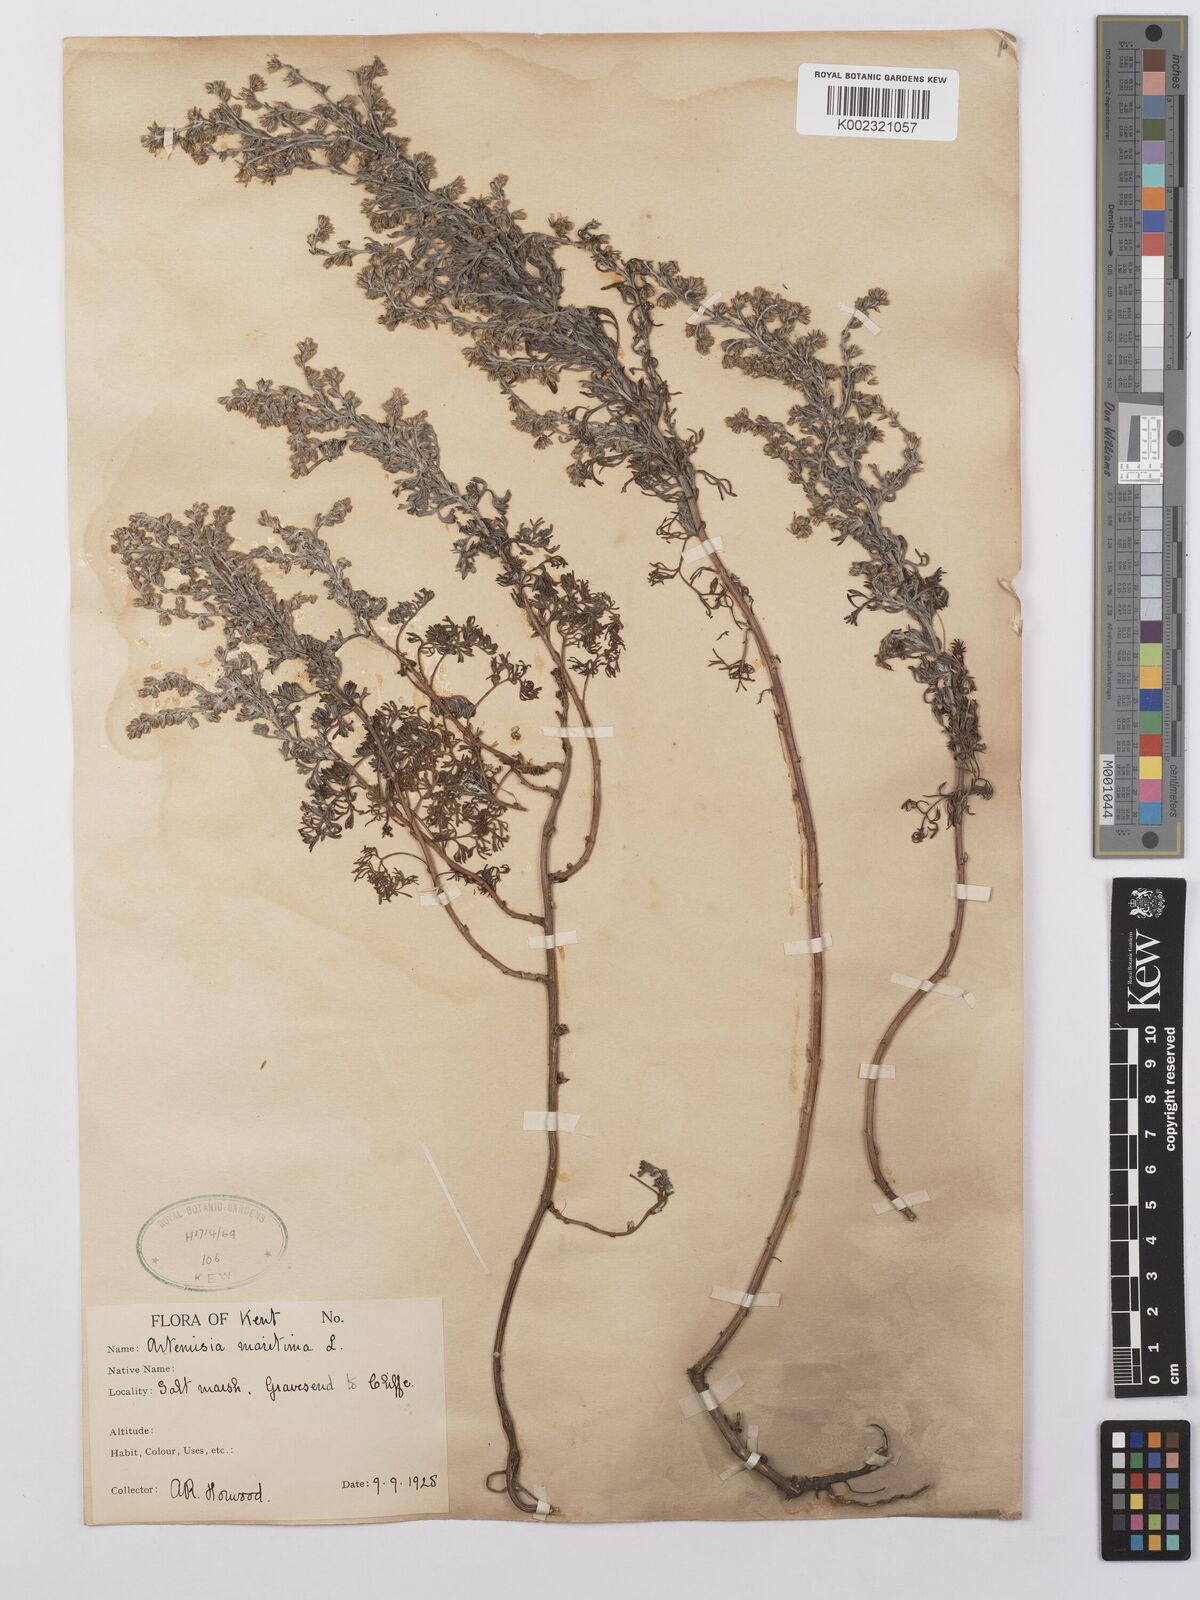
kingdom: Plantae
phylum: Tracheophyta
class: Magnoliopsida
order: Asterales
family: Asteraceae
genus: Artemisia
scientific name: Artemisia maritima
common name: Wormseed
